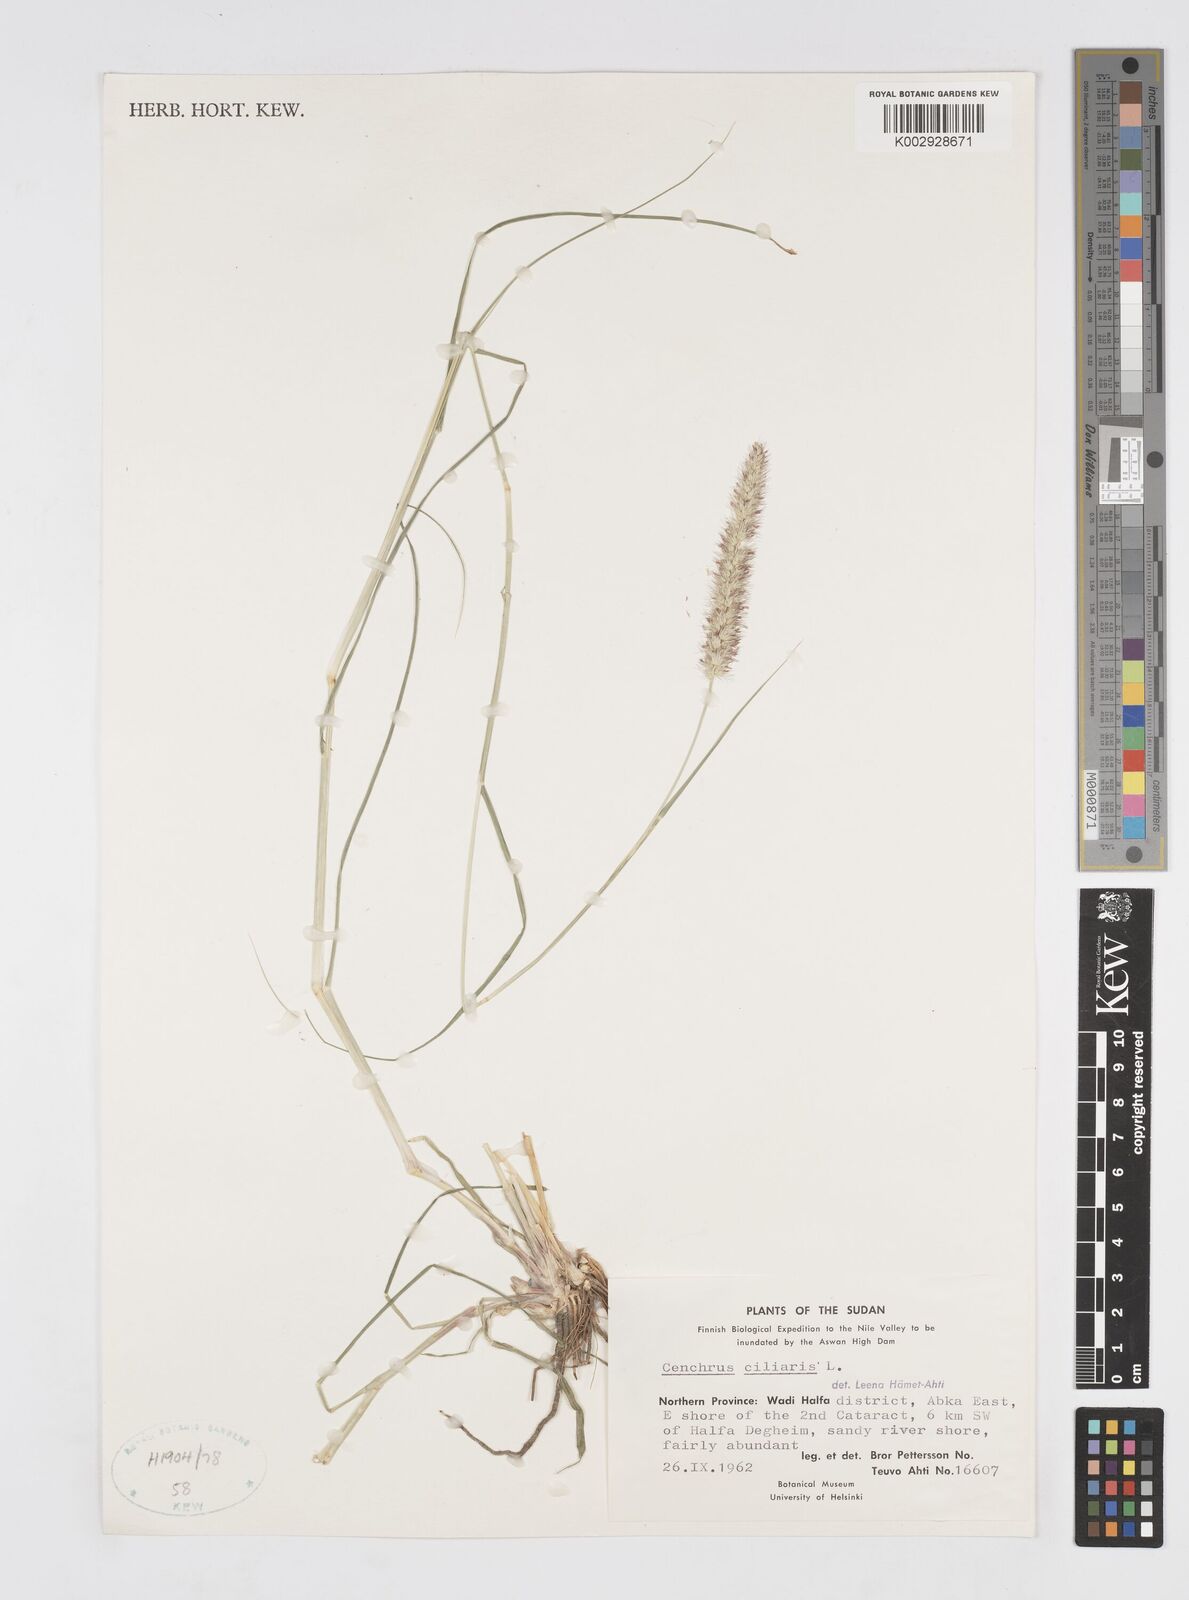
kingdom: Plantae
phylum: Tracheophyta
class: Liliopsida
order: Poales
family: Poaceae
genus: Cenchrus
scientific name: Cenchrus ciliaris
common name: Buffelgrass
